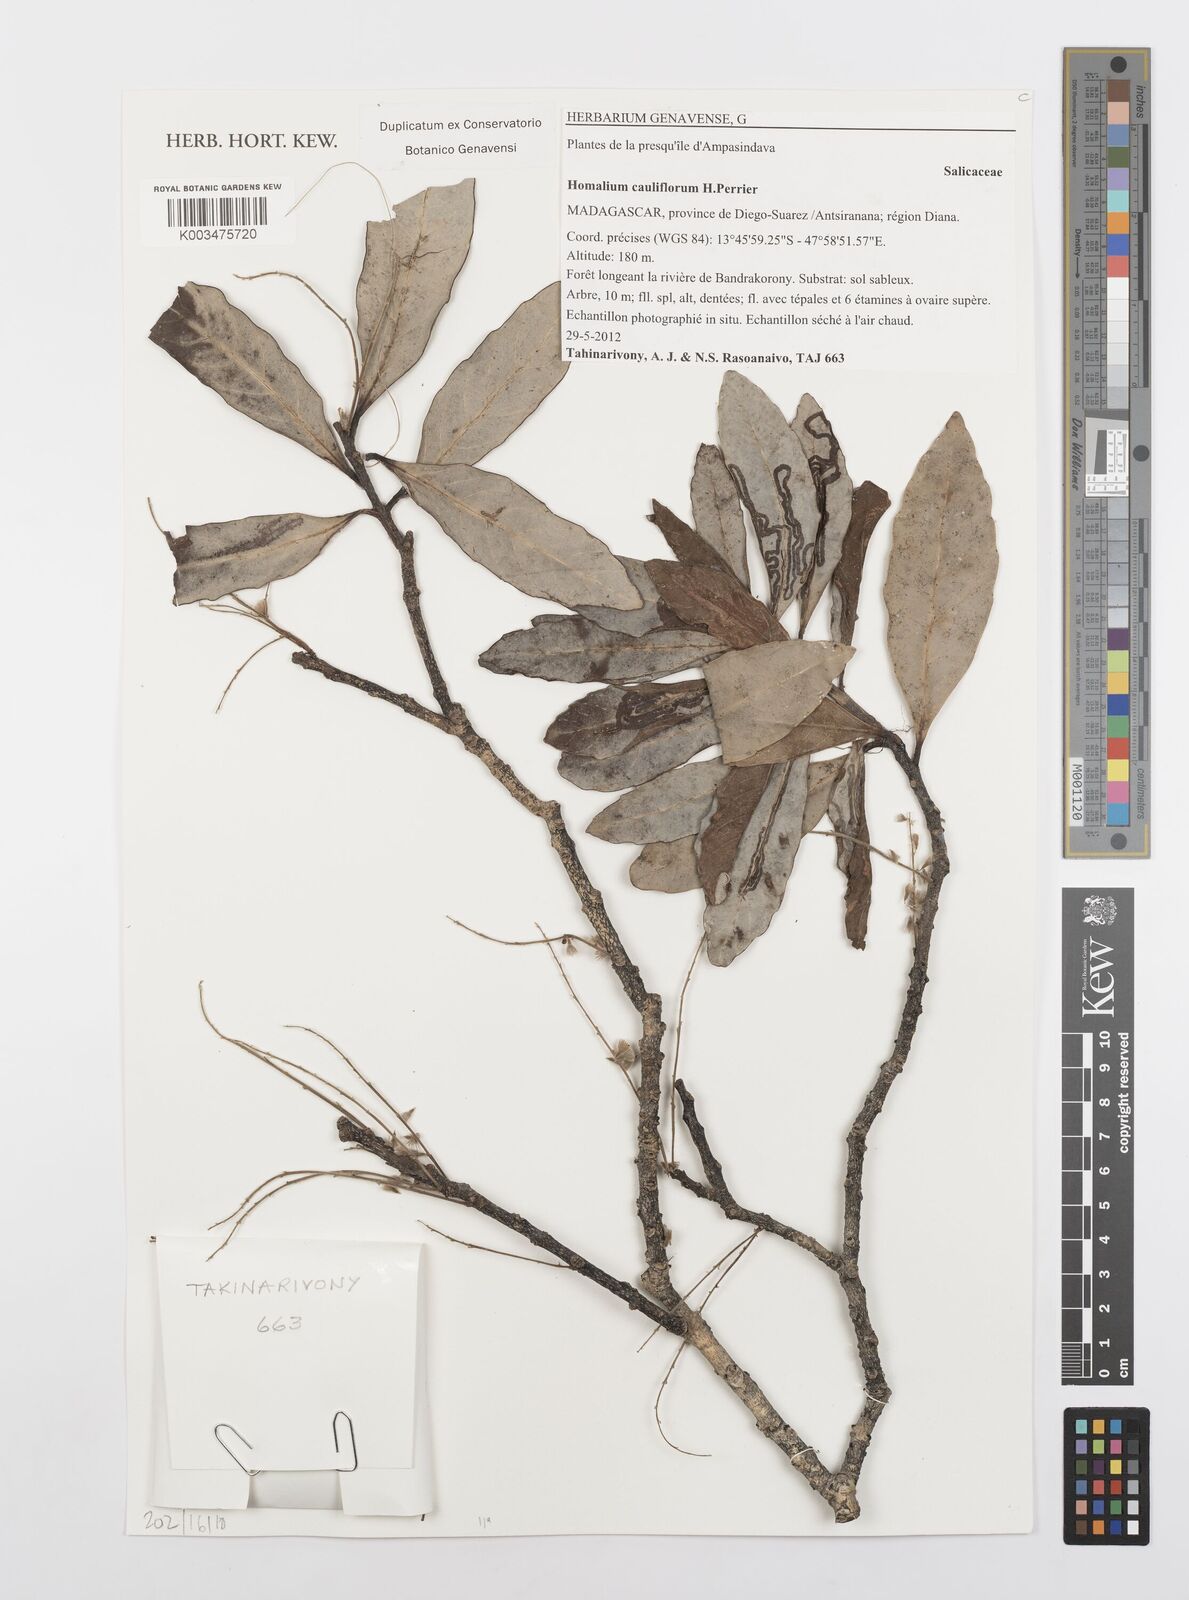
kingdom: Plantae
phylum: Tracheophyta
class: Magnoliopsida
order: Malpighiales
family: Salicaceae
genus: Homalium
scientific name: Homalium cauliflorum
